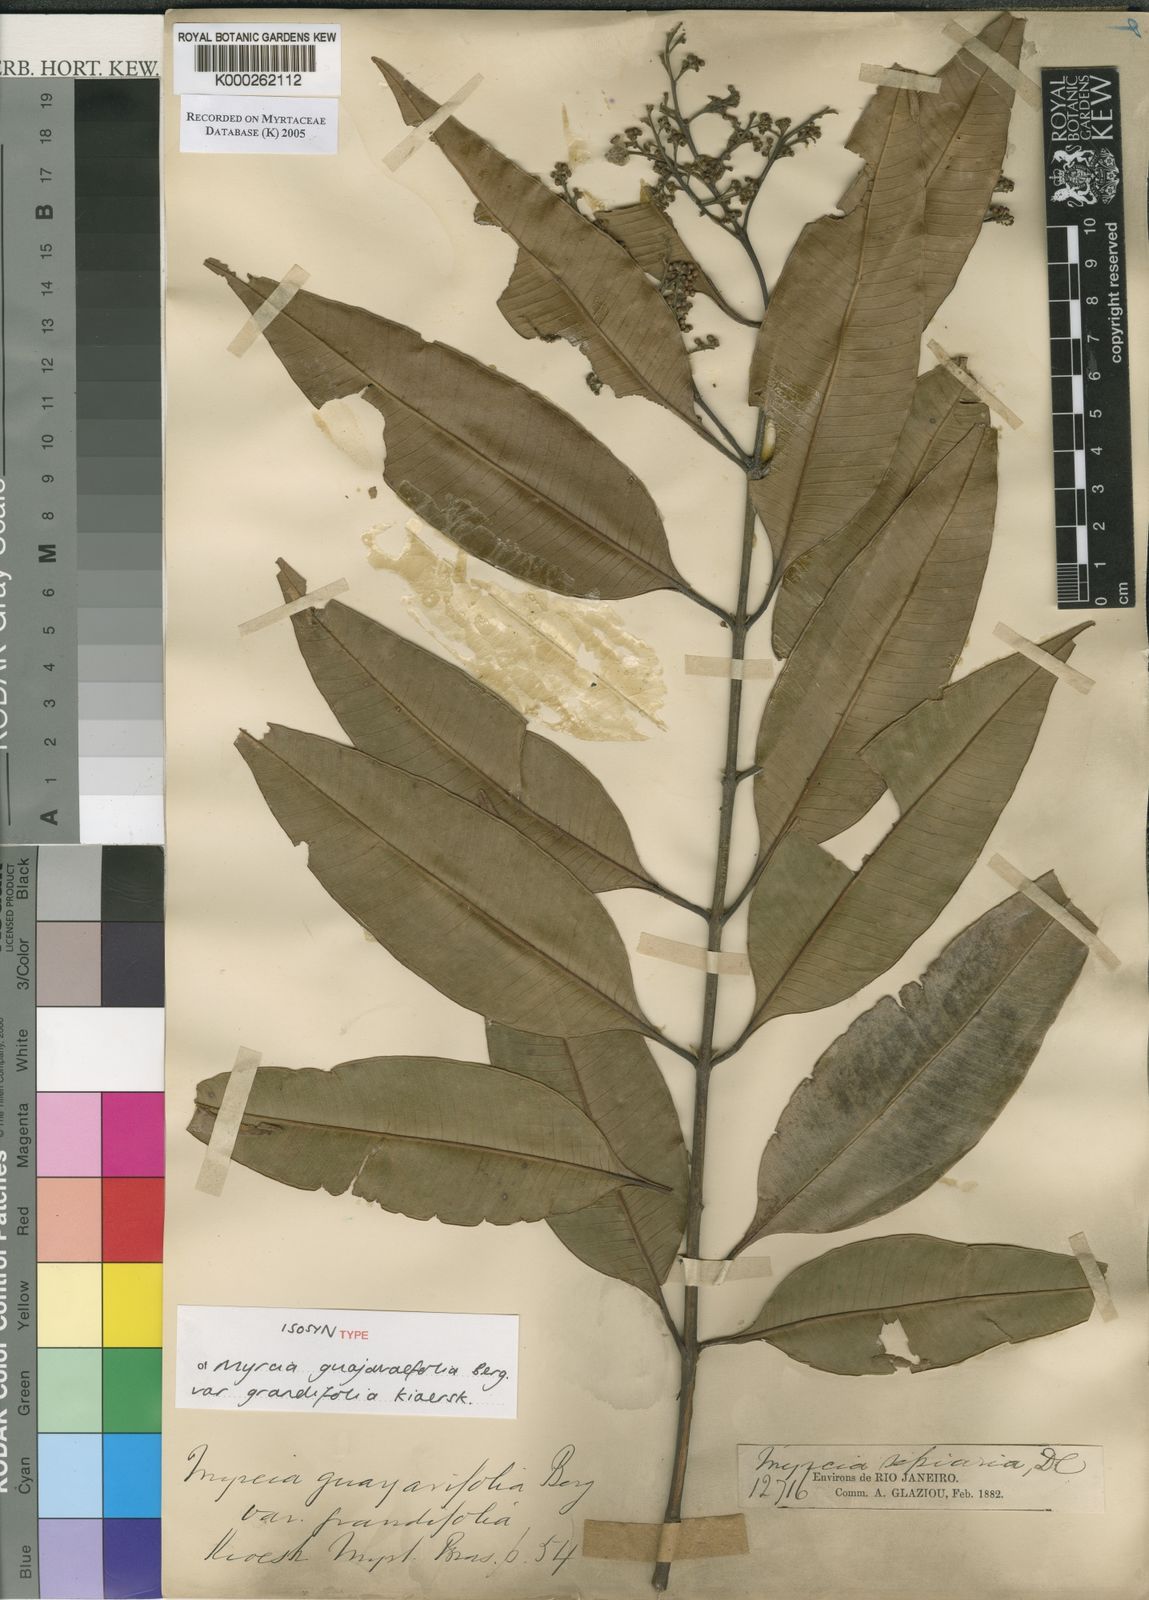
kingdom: Plantae
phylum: Tracheophyta
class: Magnoliopsida
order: Myrtales
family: Myrtaceae
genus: Myrcia
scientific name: Myrcia splendens
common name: Surinam cherry
